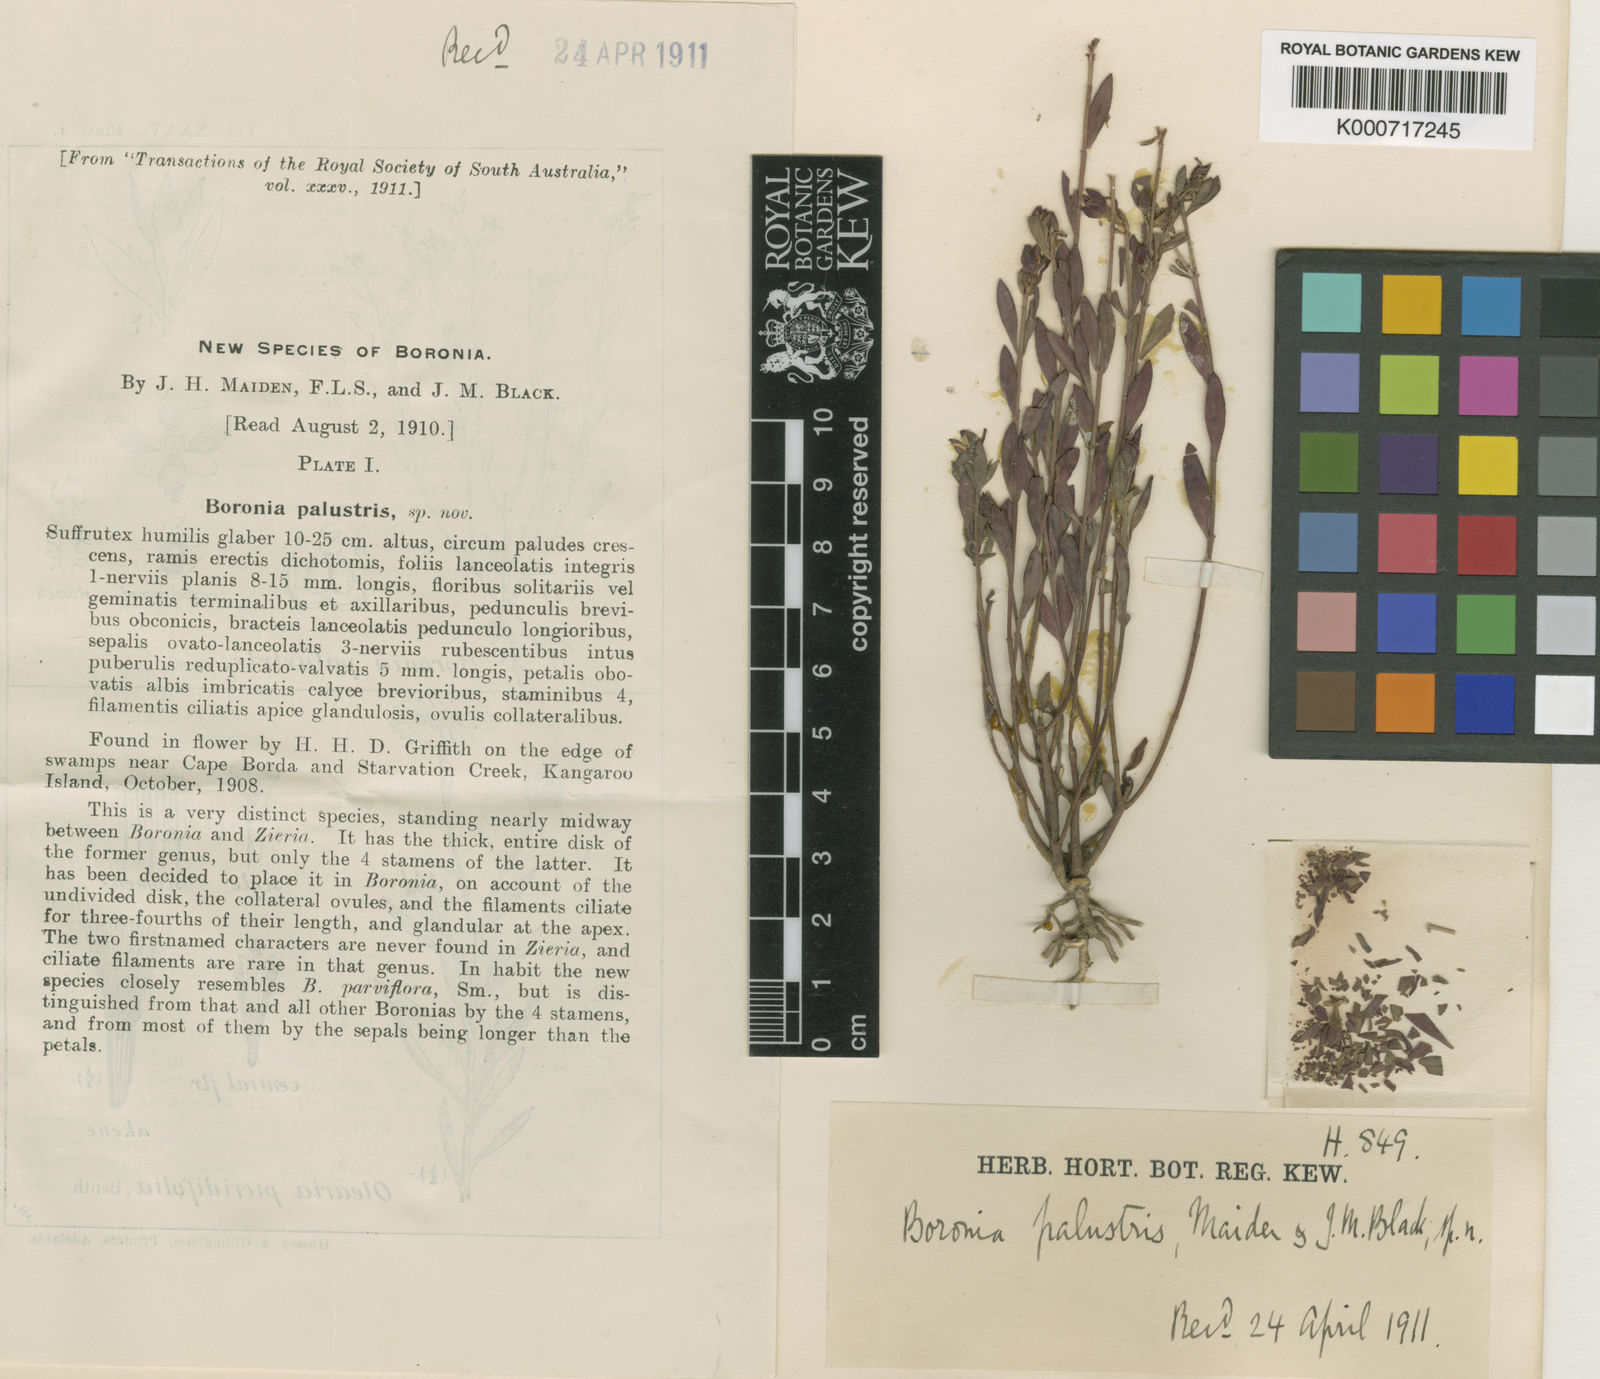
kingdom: Plantae
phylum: Tracheophyta
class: Magnoliopsida
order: Sapindales
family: Rutaceae
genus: Boronia
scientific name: Boronia parviflora
